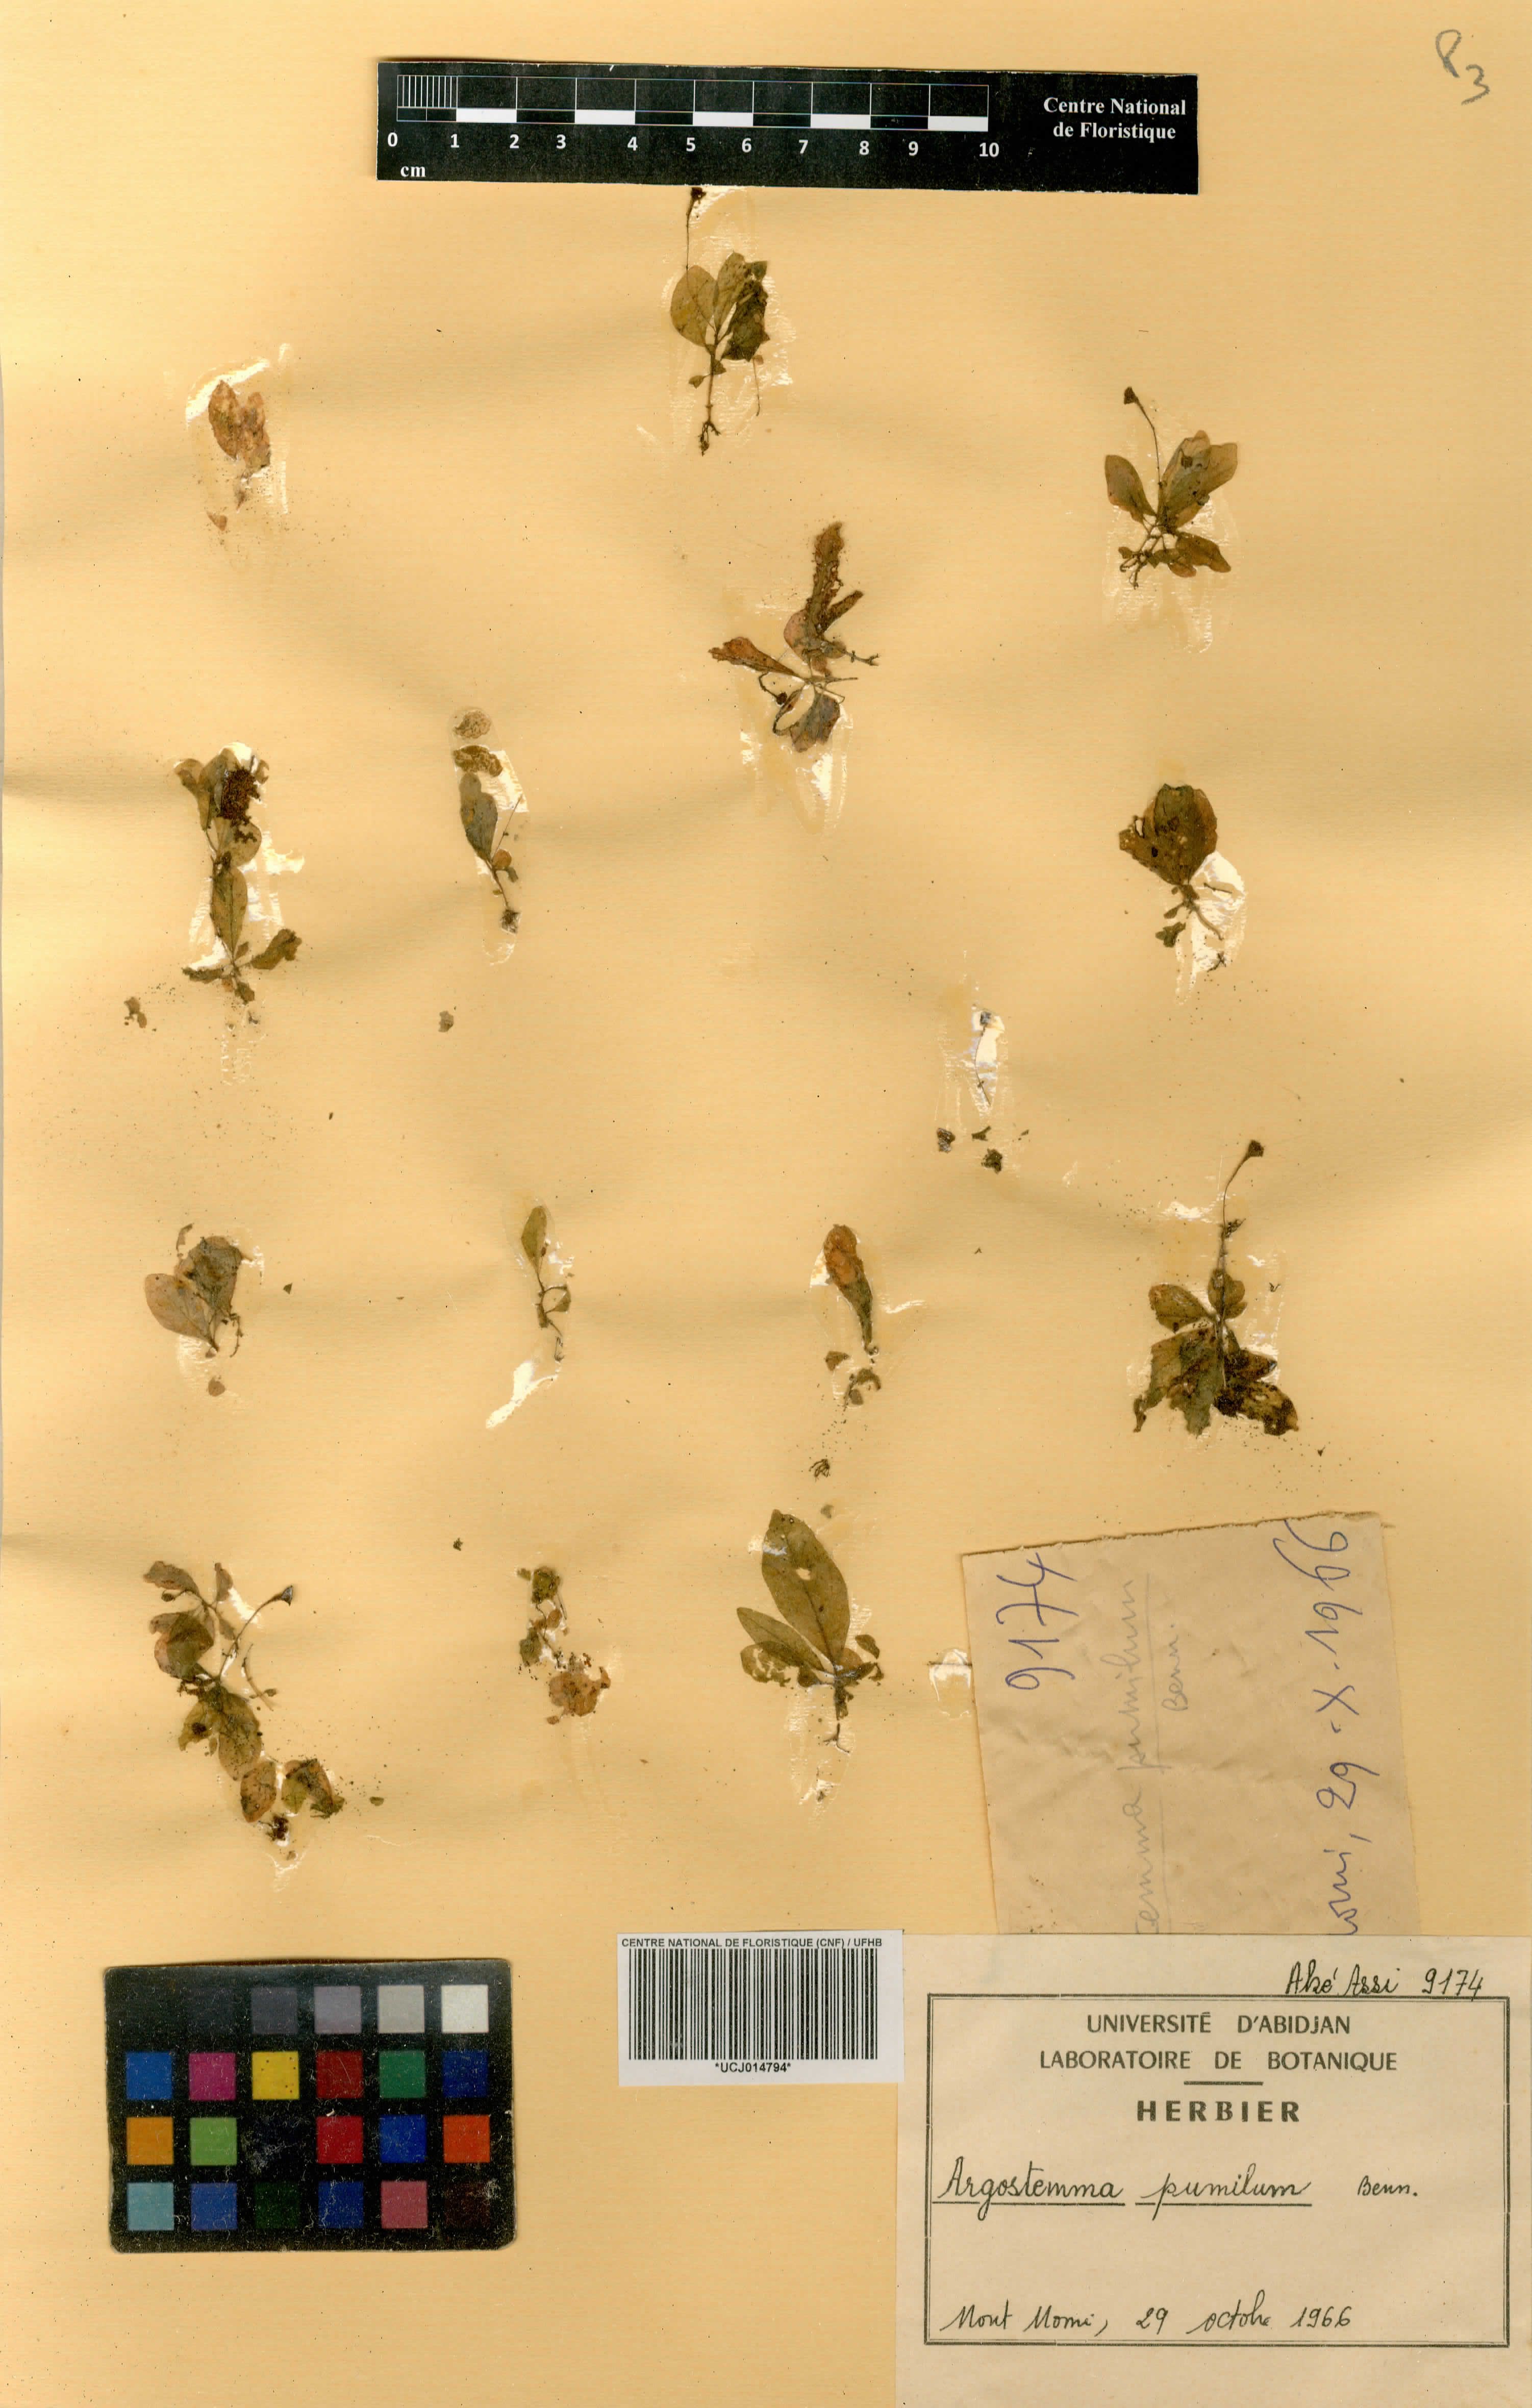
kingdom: Plantae
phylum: Tracheophyta
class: Magnoliopsida
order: Gentianales
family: Rubiaceae
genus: Argostemma
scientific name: Argostemma pumilum
